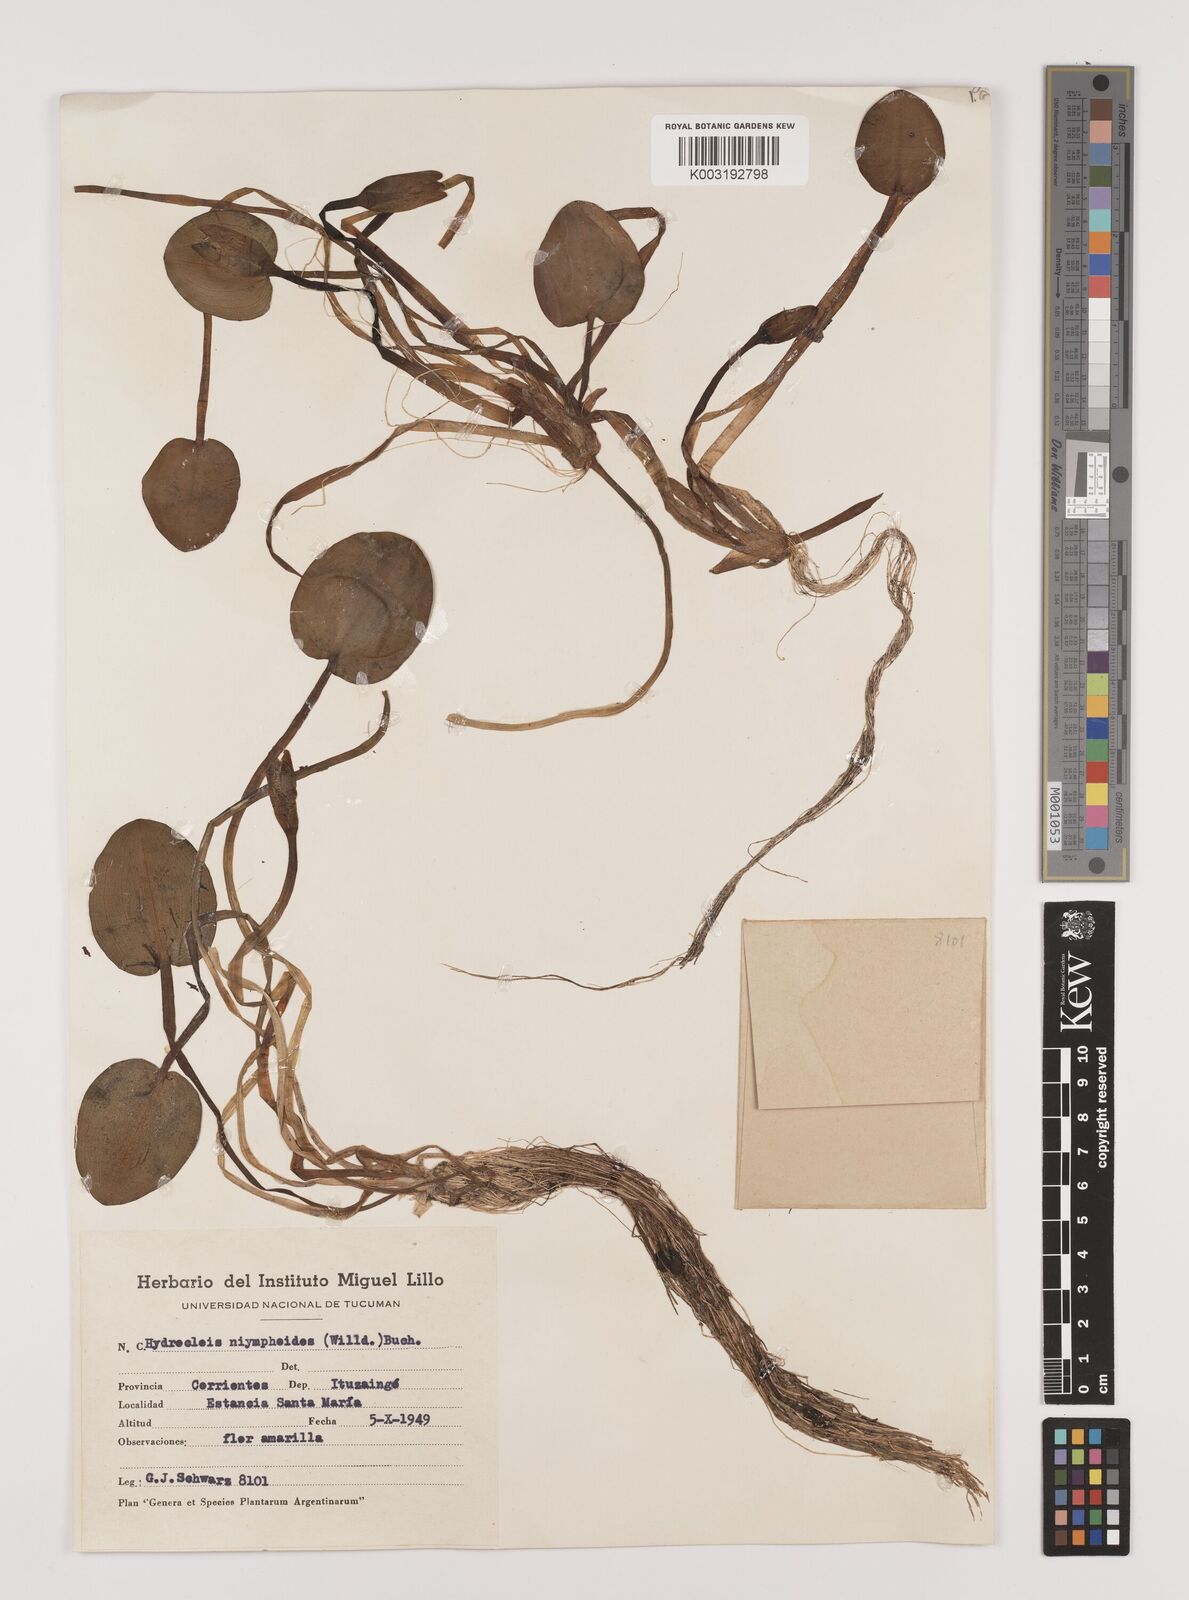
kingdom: Plantae
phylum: Tracheophyta
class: Liliopsida
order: Alismatales
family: Alismataceae
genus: Hydrocleys
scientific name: Hydrocleys nymphoides
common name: Water-poppy
